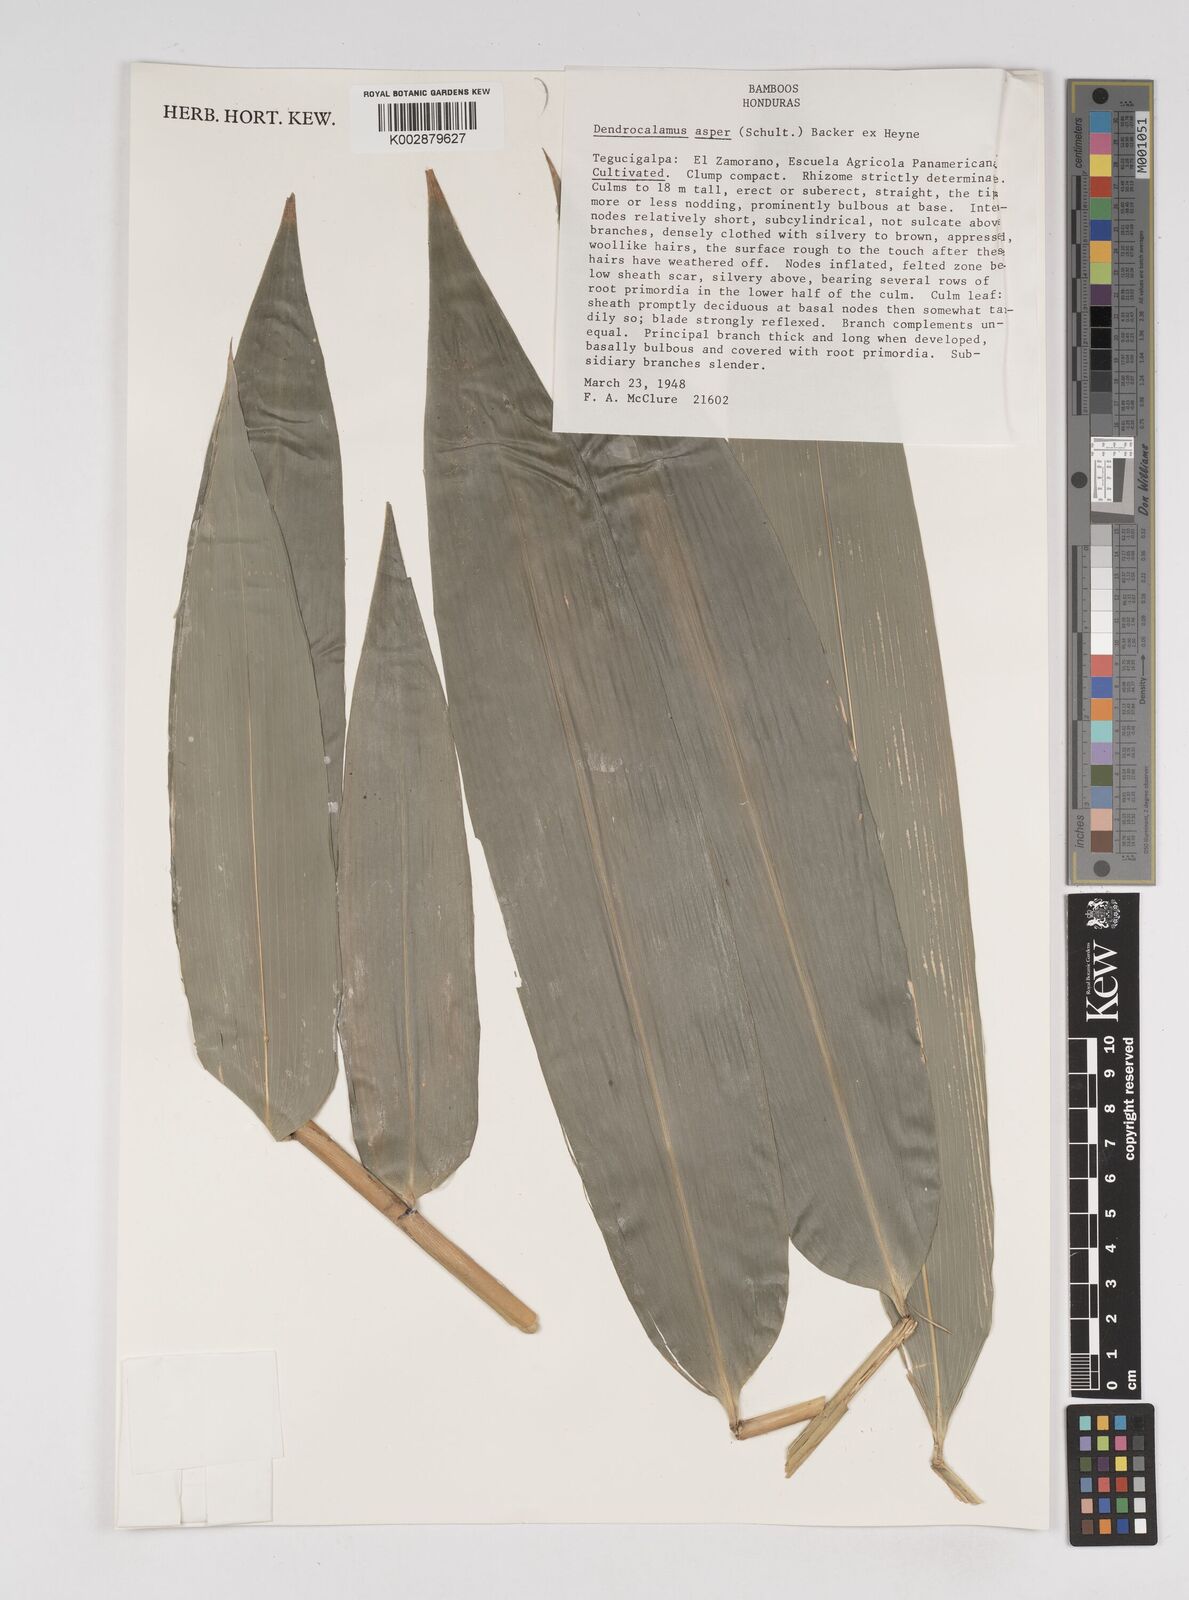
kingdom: Plantae
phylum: Tracheophyta
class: Liliopsida
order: Poales
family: Poaceae
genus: Dendrocalamus
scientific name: Dendrocalamus asper
